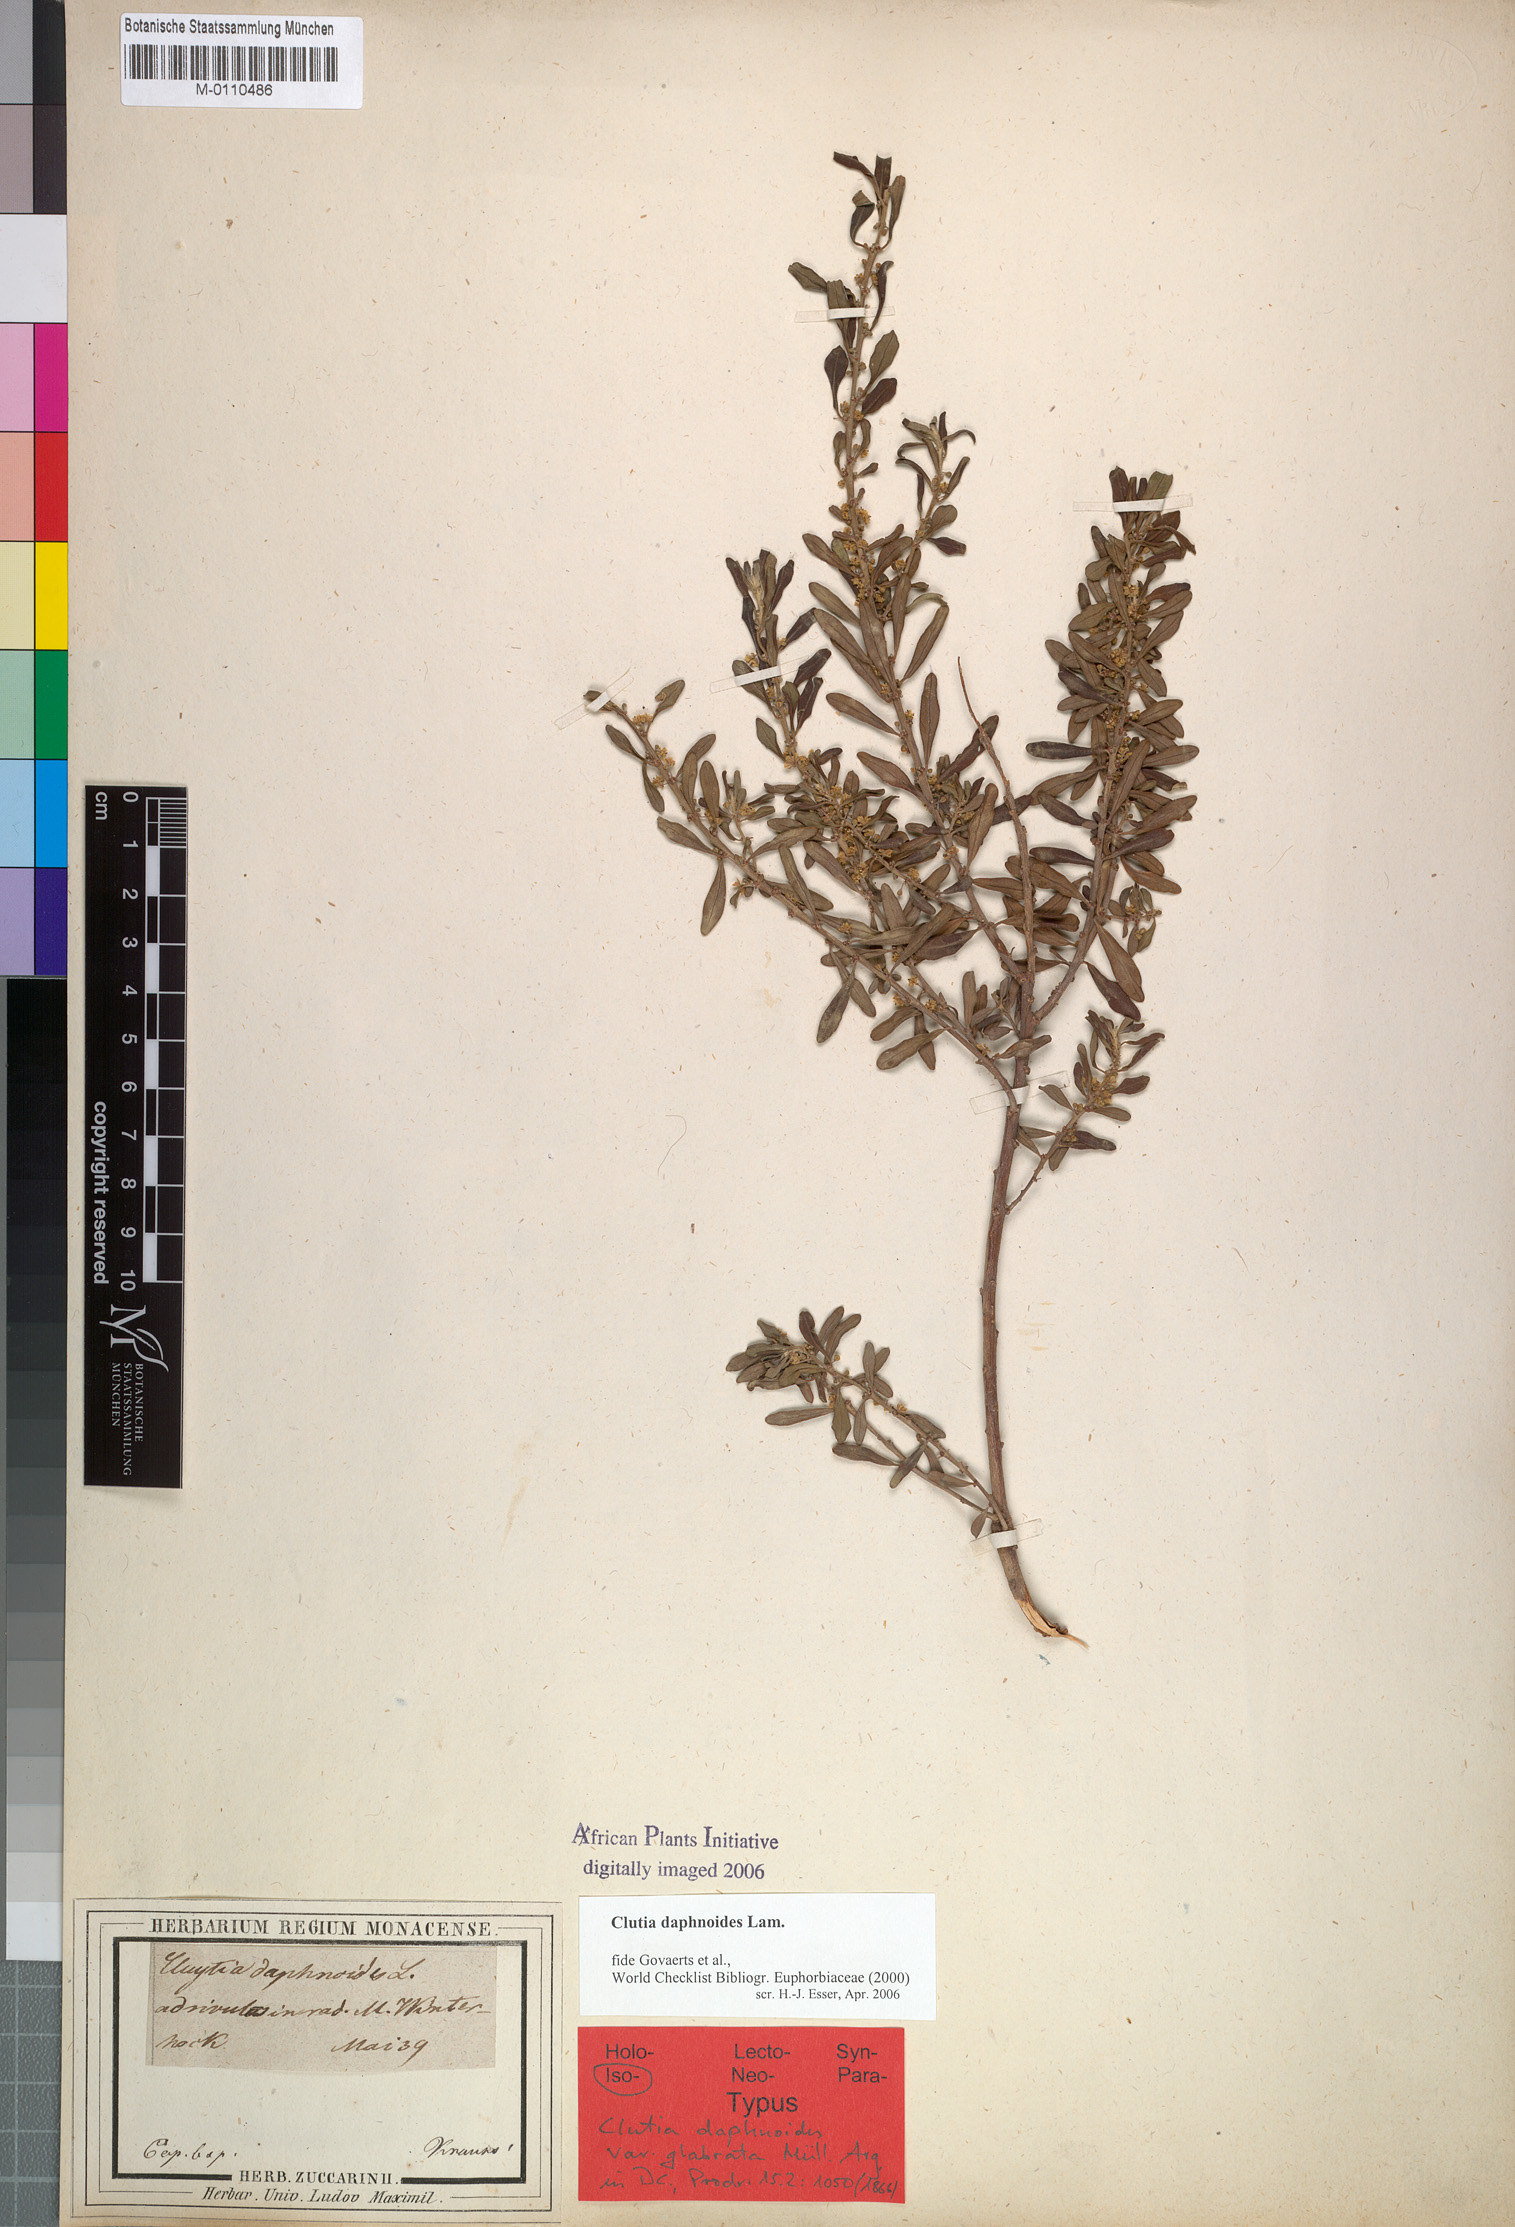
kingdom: Plantae
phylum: Tracheophyta
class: Magnoliopsida
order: Malpighiales
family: Peraceae
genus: Clutia
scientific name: Clutia daphnoides
